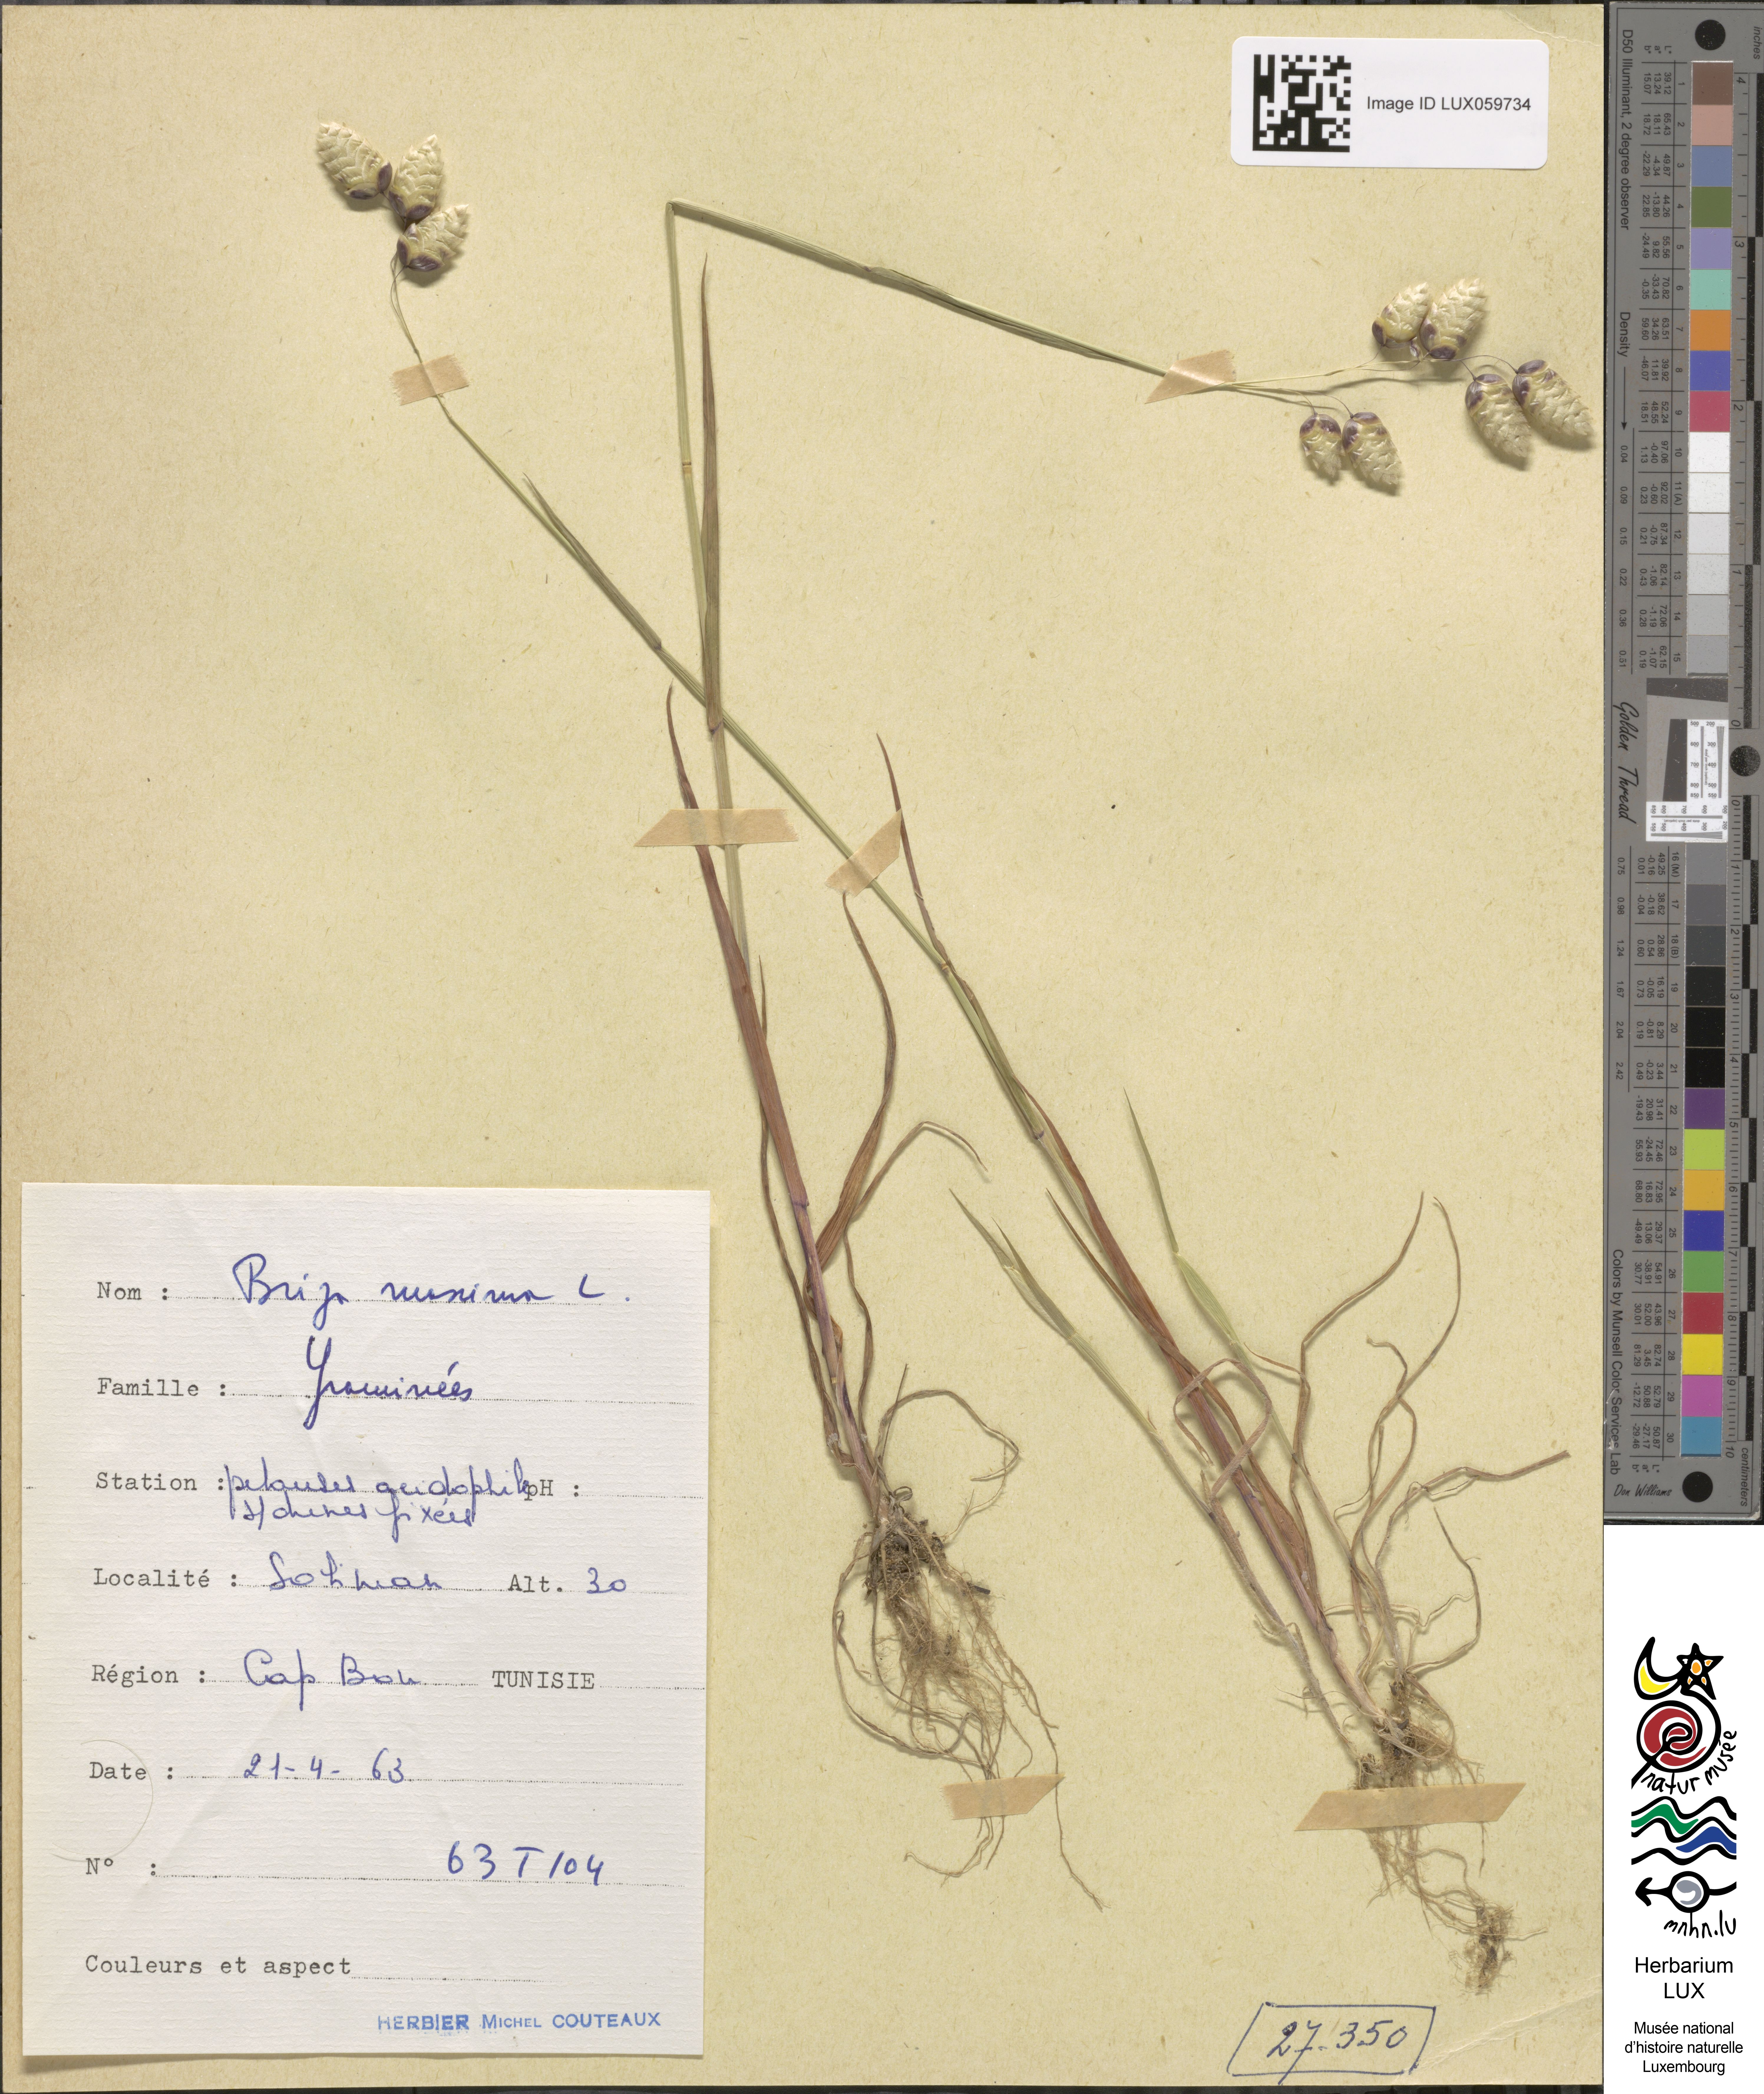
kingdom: Plantae
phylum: Tracheophyta
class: Liliopsida
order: Poales
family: Poaceae
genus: Briza
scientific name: Briza maxima
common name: Big quakinggrass
